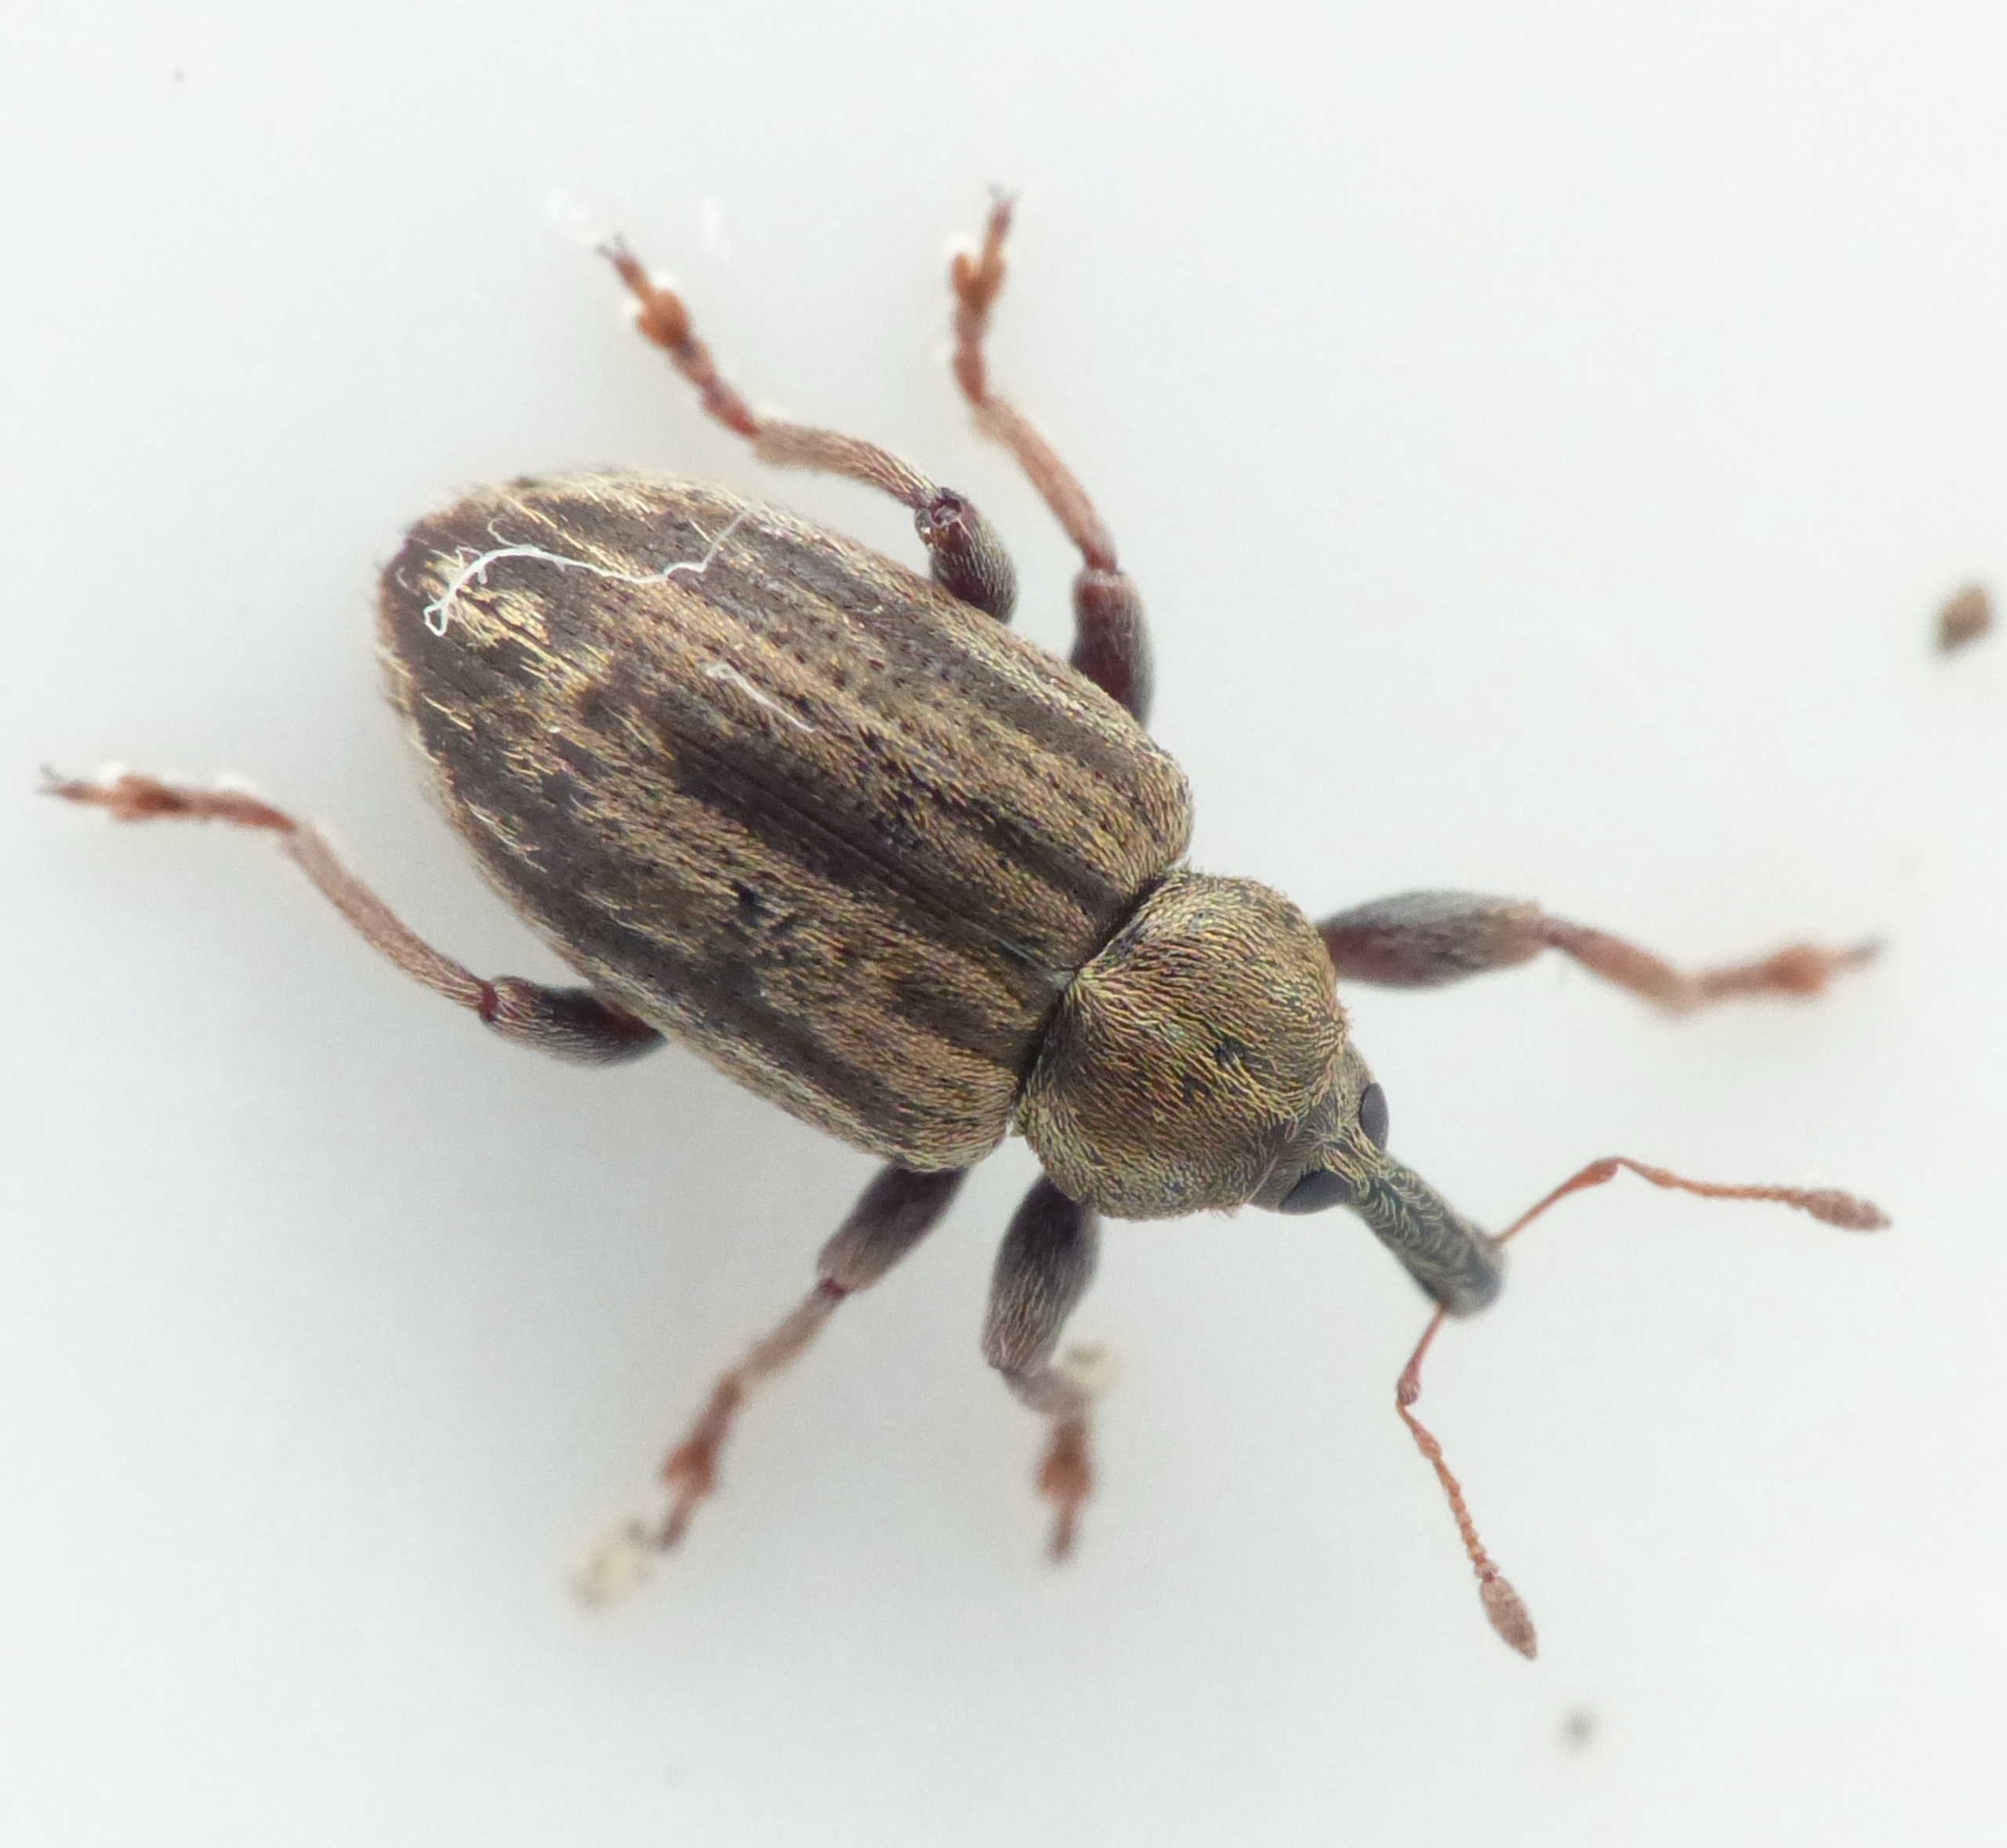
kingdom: Animalia
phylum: Arthropoda
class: Insecta
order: Coleoptera
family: Curculionidae
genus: Hypera
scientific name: Hypera meles
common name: Kløverhovedgnaver
